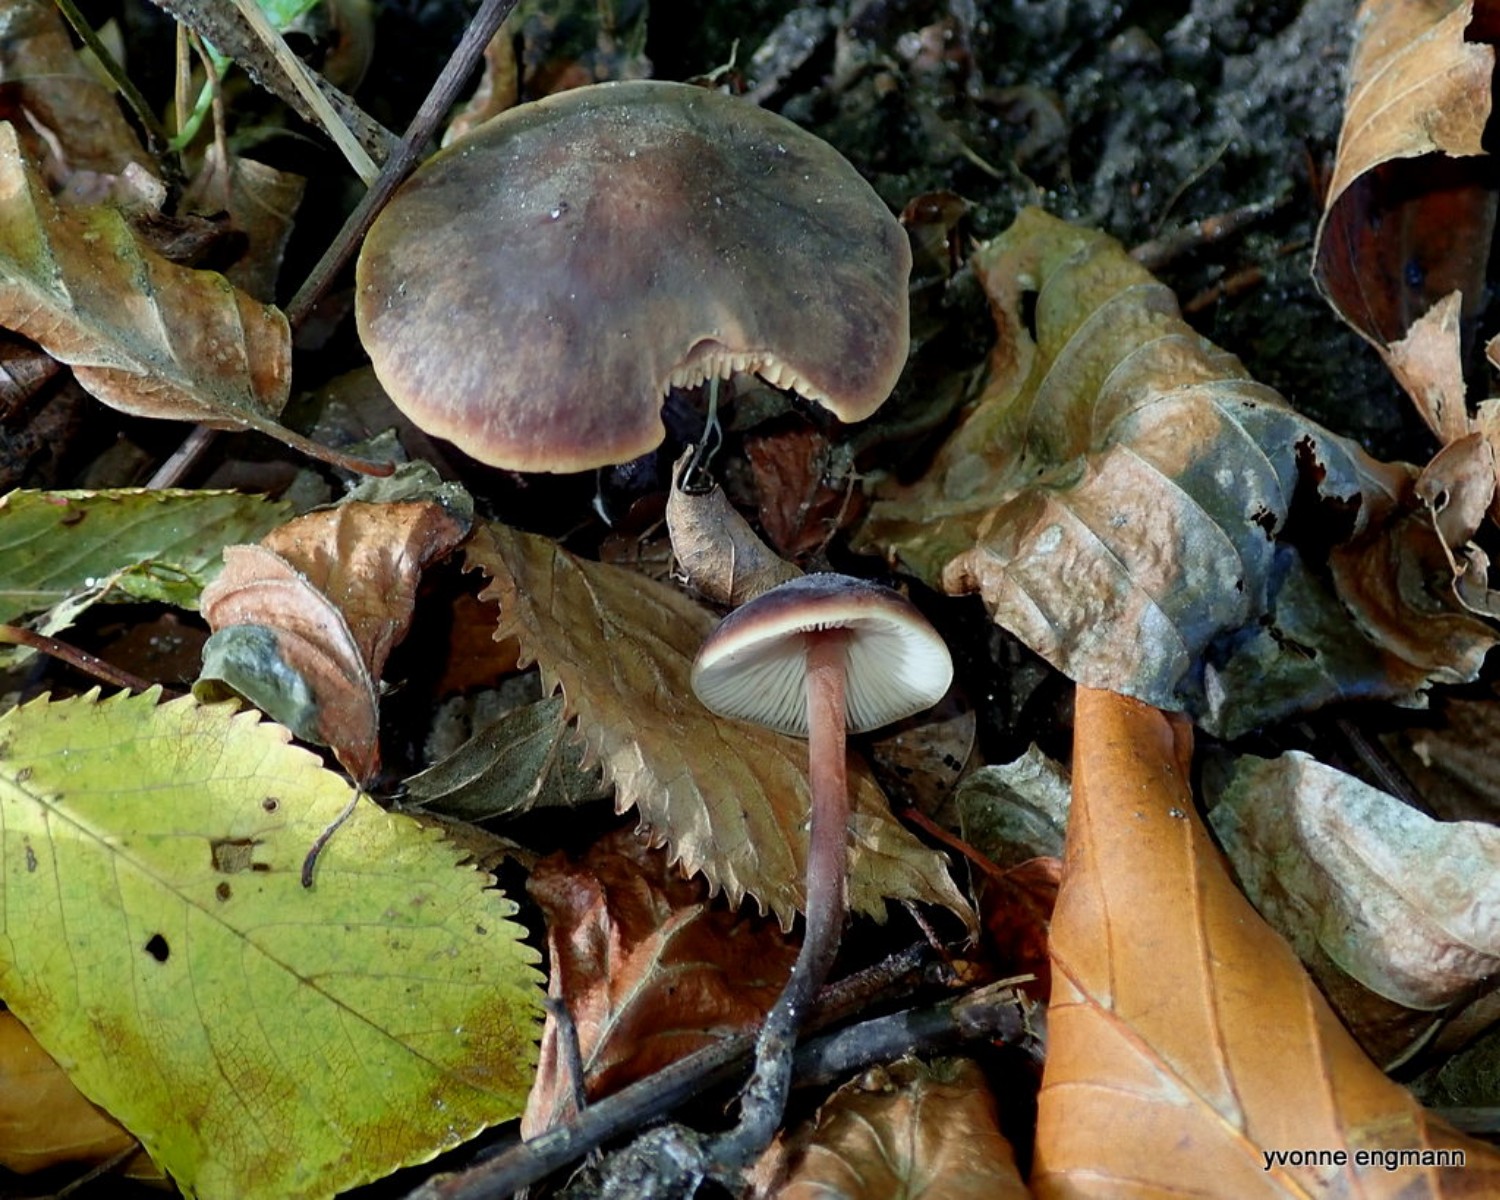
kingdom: Fungi
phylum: Basidiomycota
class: Agaricomycetes
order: Agaricales
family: Macrocystidiaceae
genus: Macrocystidia
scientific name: Macrocystidia cucumis
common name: agurkehat
